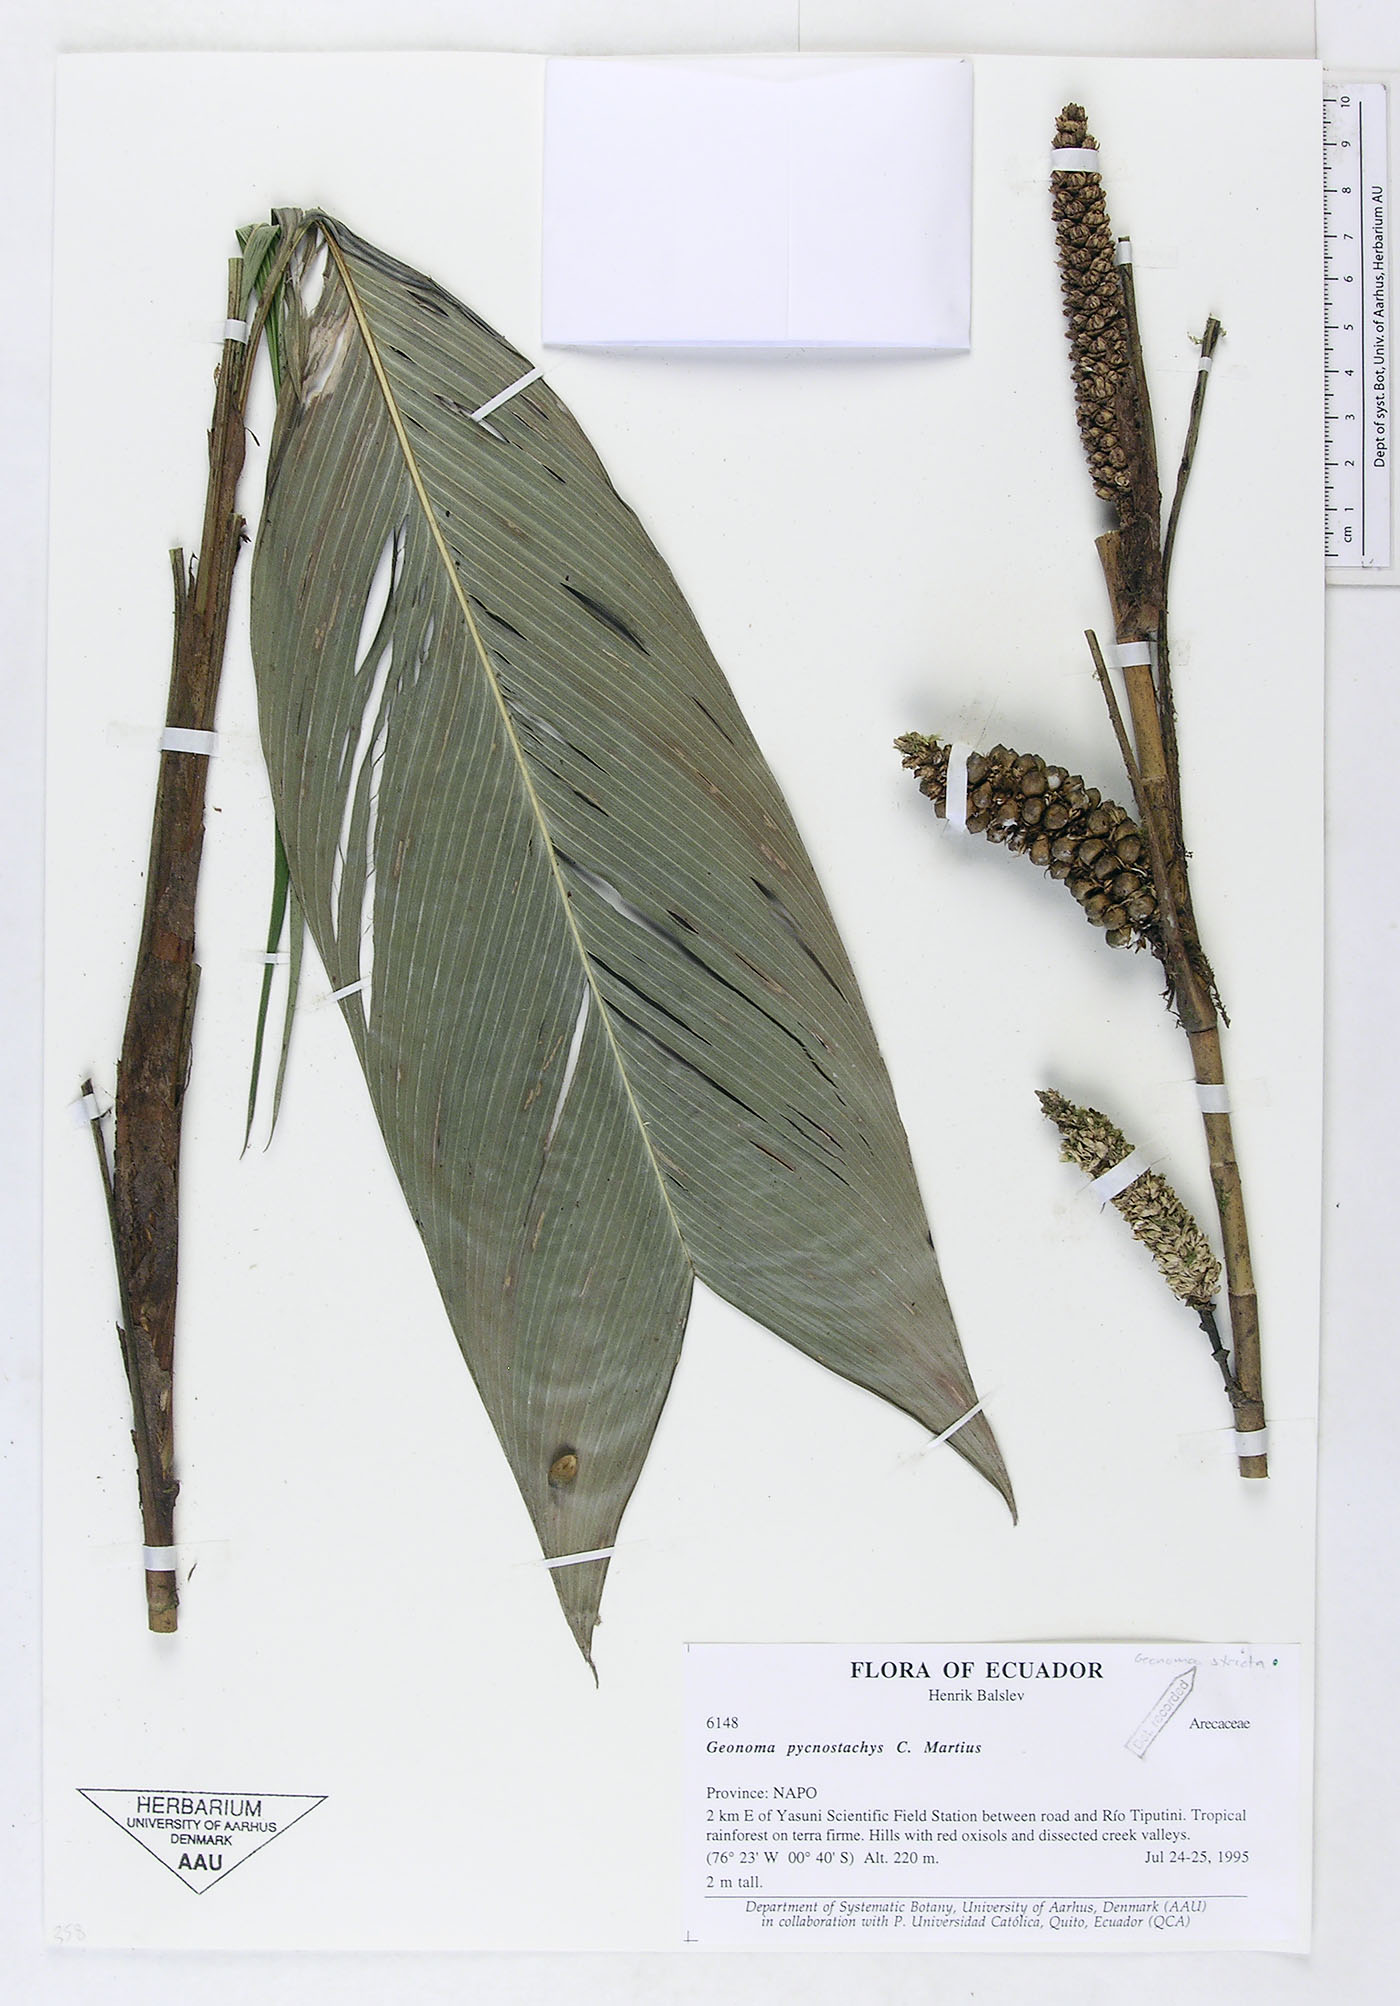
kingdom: Plantae
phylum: Tracheophyta
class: Liliopsida
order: Arecales
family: Arecaceae
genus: Geonoma
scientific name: Geonoma stricta
